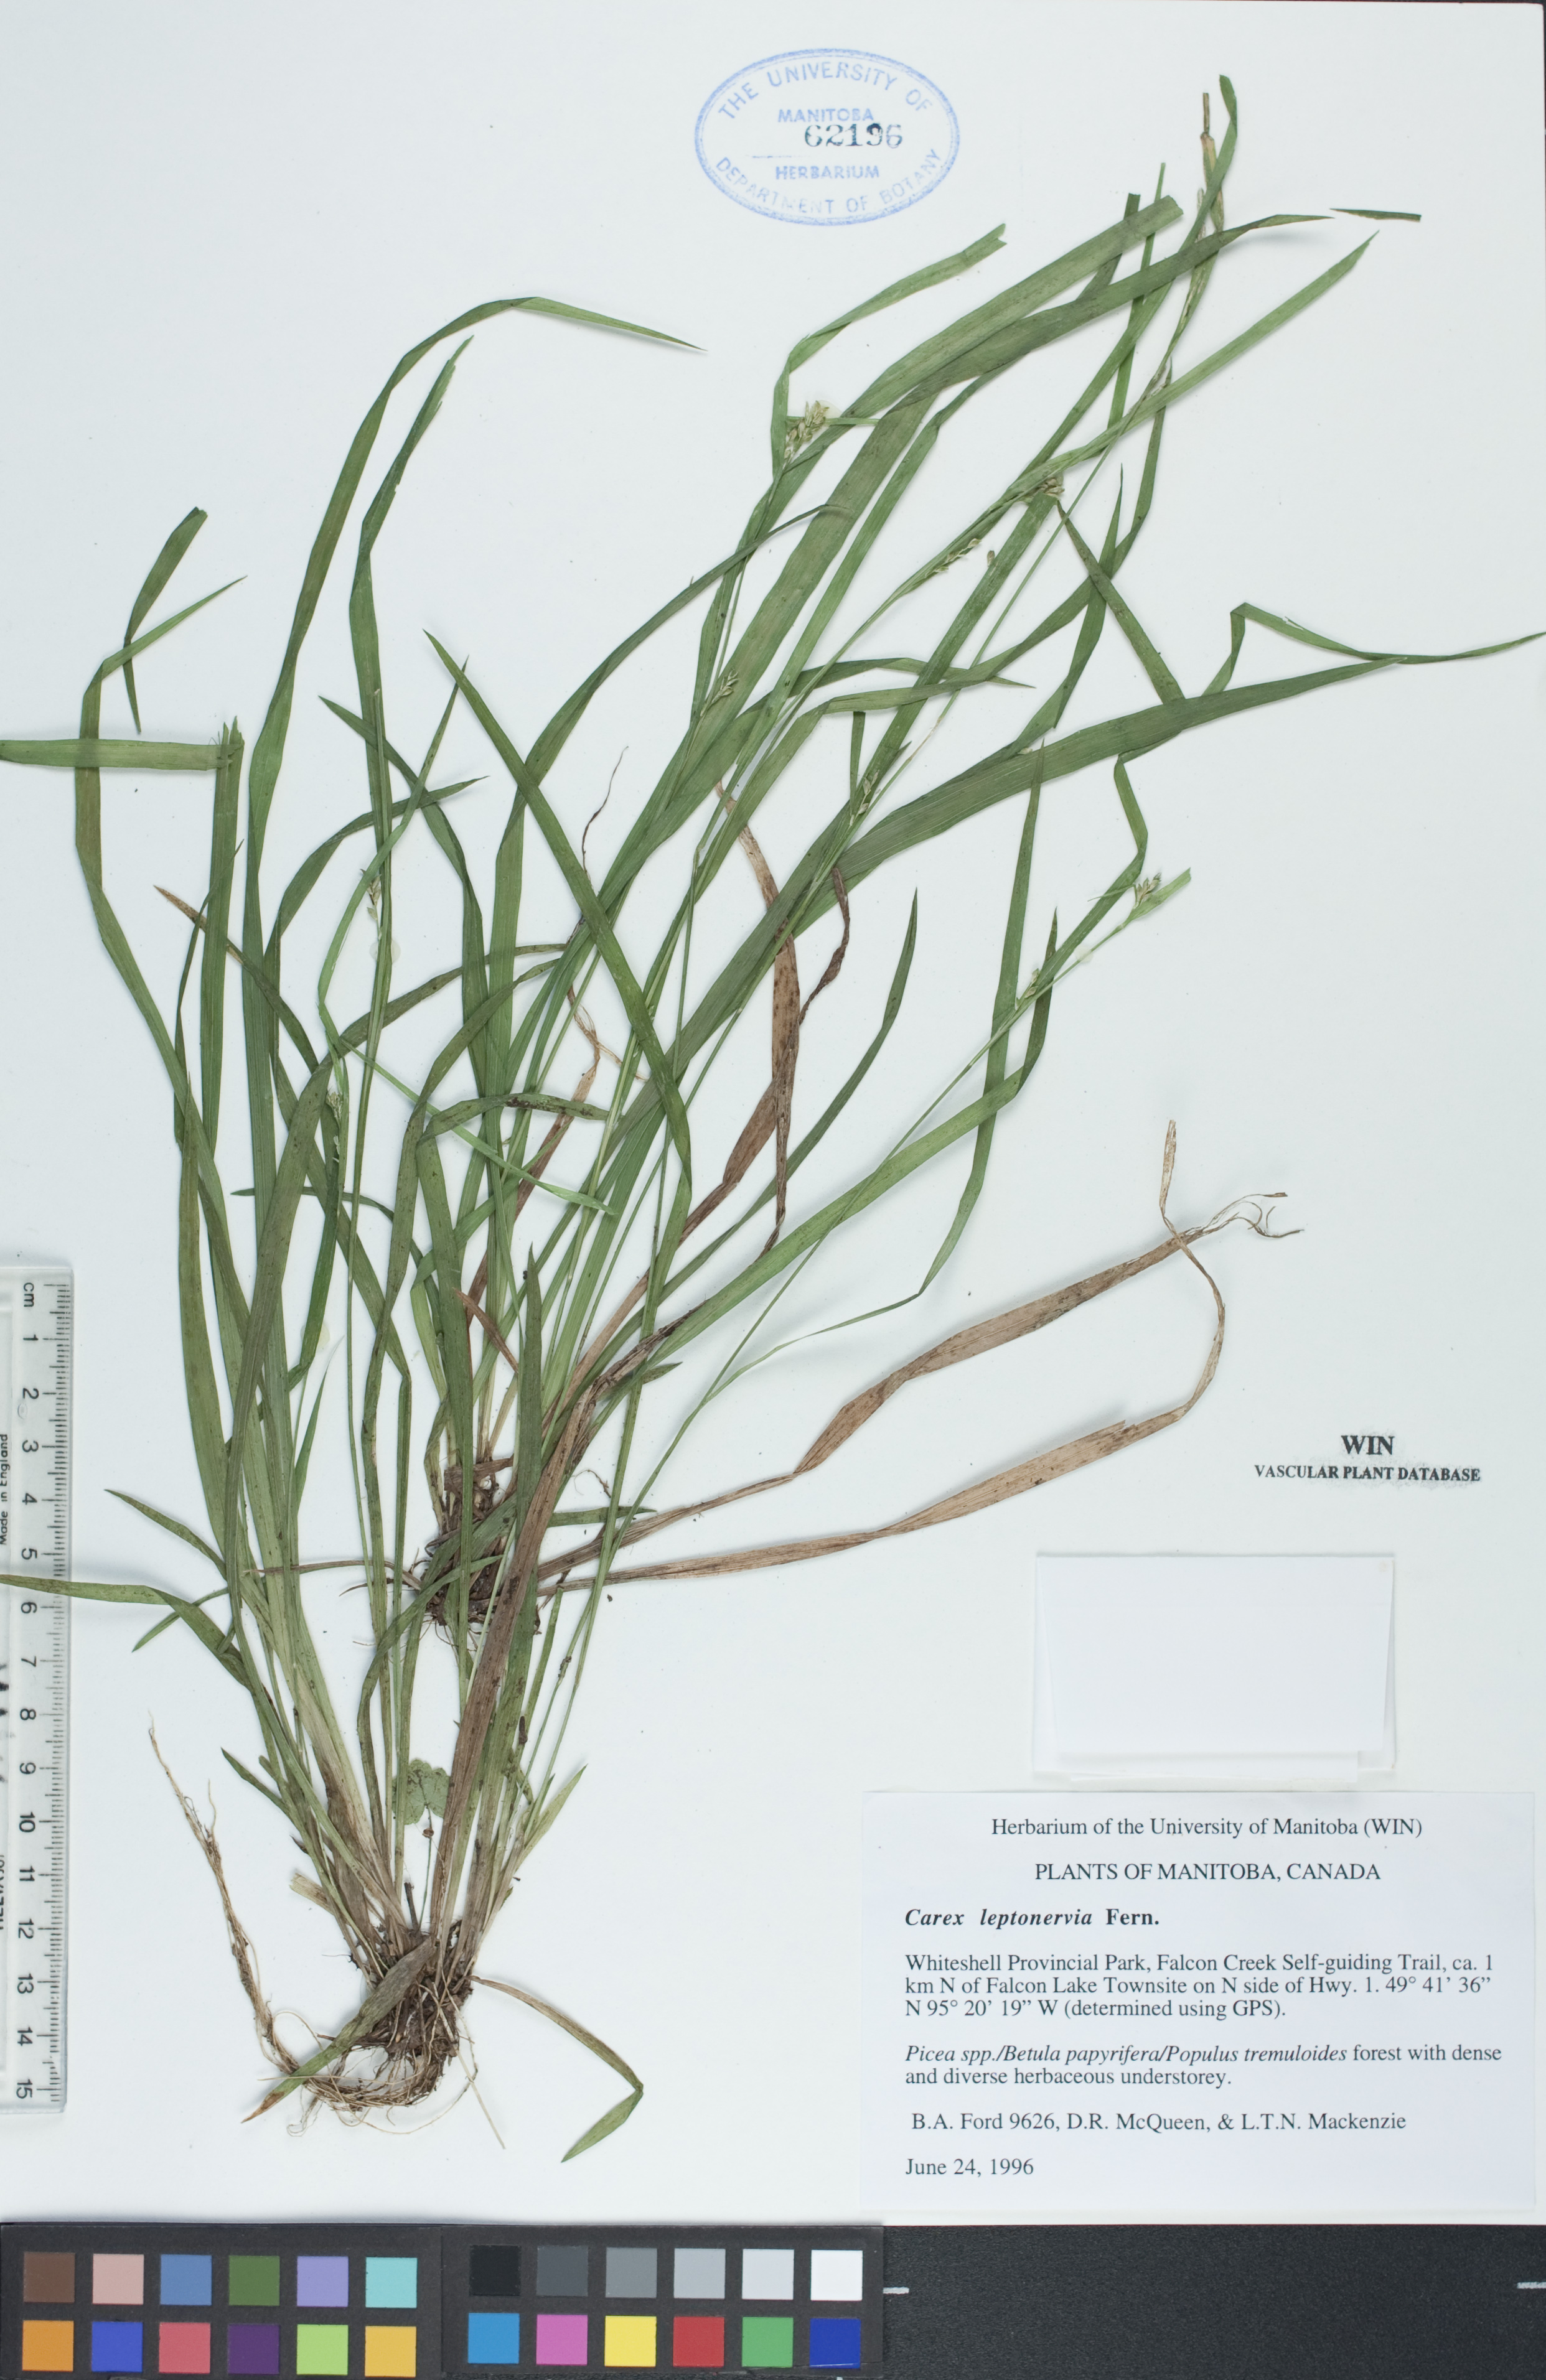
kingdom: Plantae
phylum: Tracheophyta
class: Liliopsida
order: Poales
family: Cyperaceae
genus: Carex
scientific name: Carex leptonervia
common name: Few-nerved wood sedge
